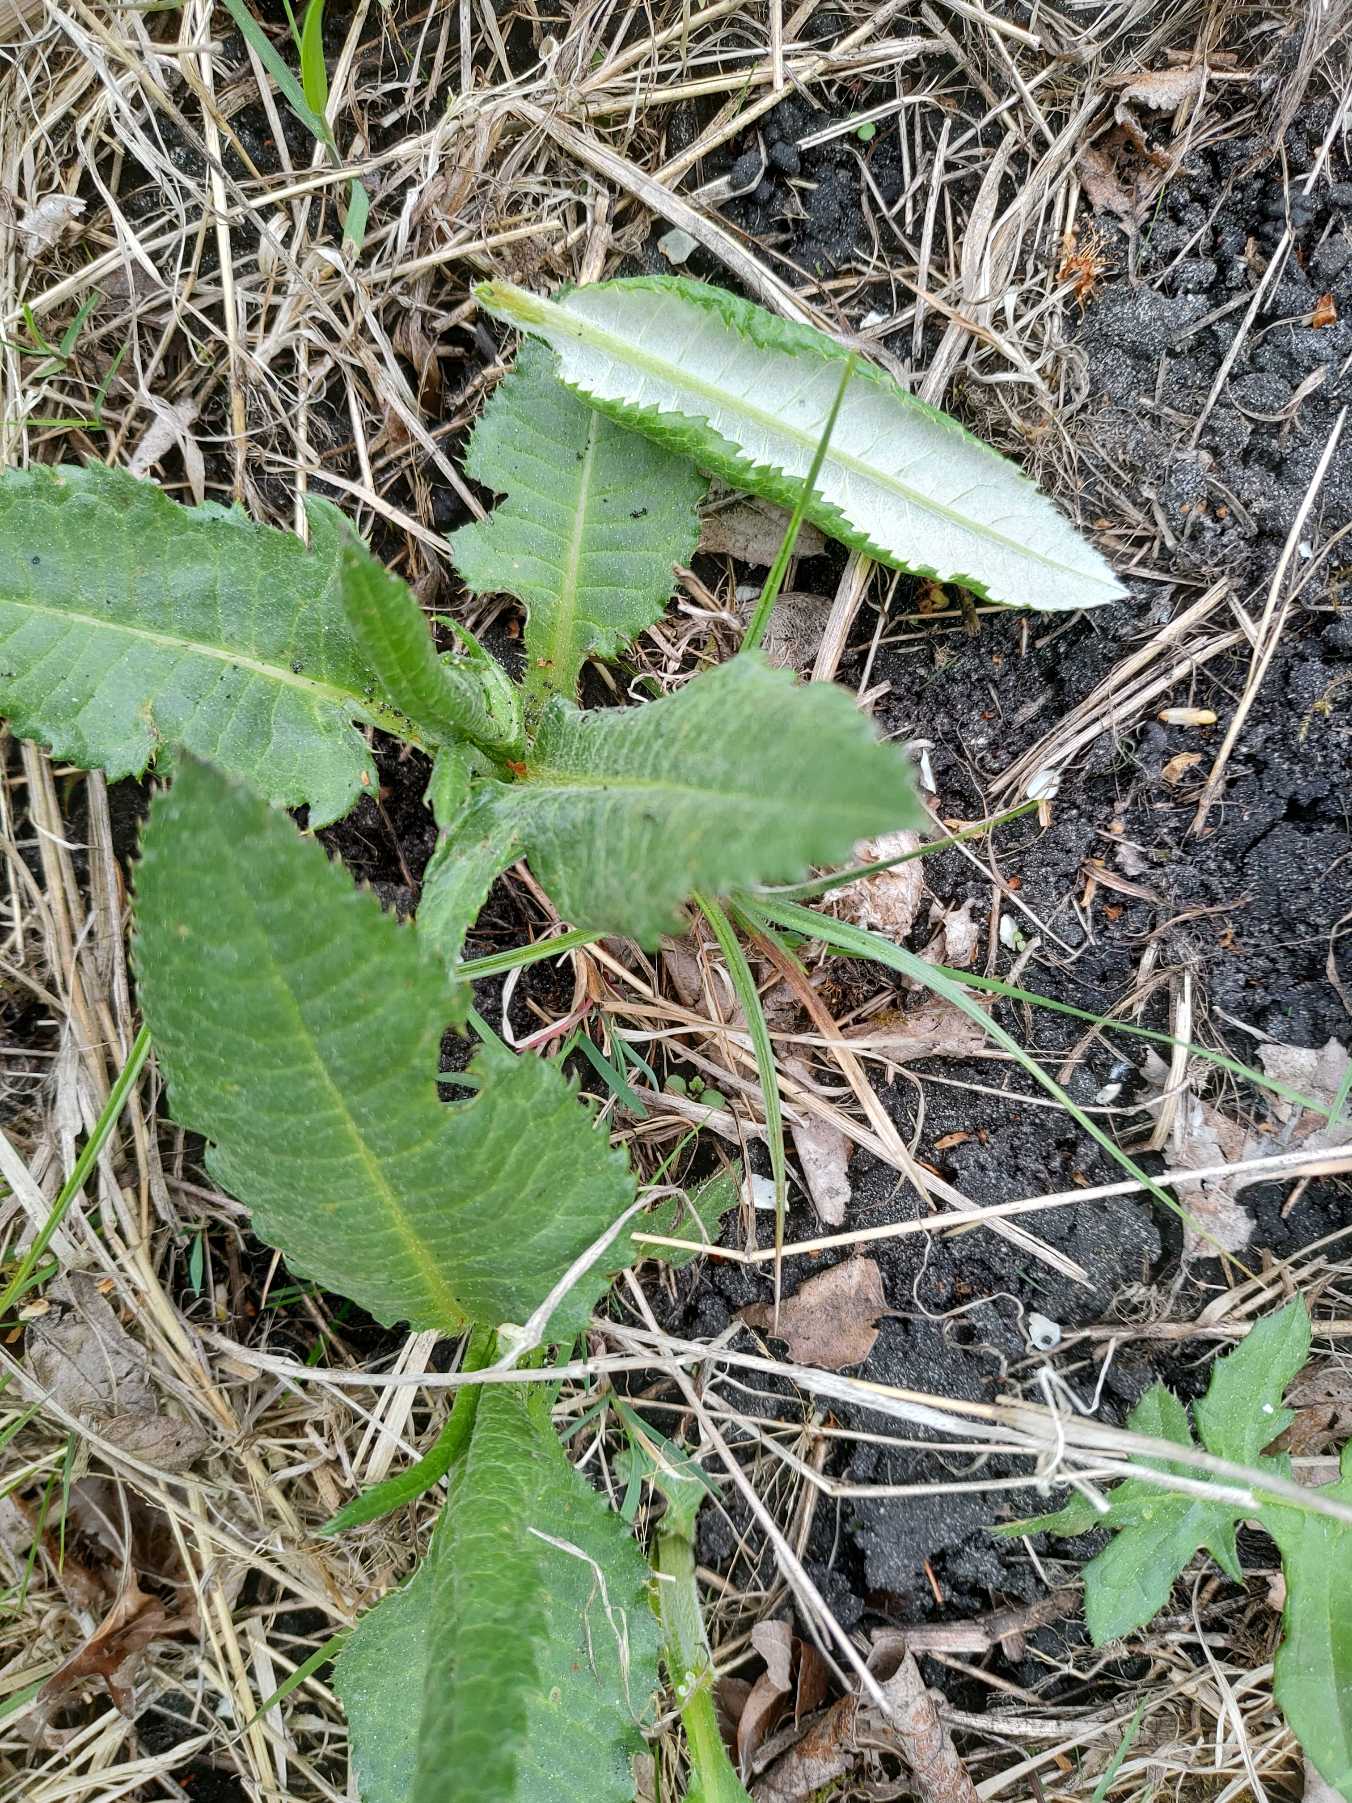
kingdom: Plantae
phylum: Tracheophyta
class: Magnoliopsida
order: Asterales
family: Asteraceae
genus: Cirsium
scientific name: Cirsium heterophyllum
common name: Forskelligbladet tidsel
